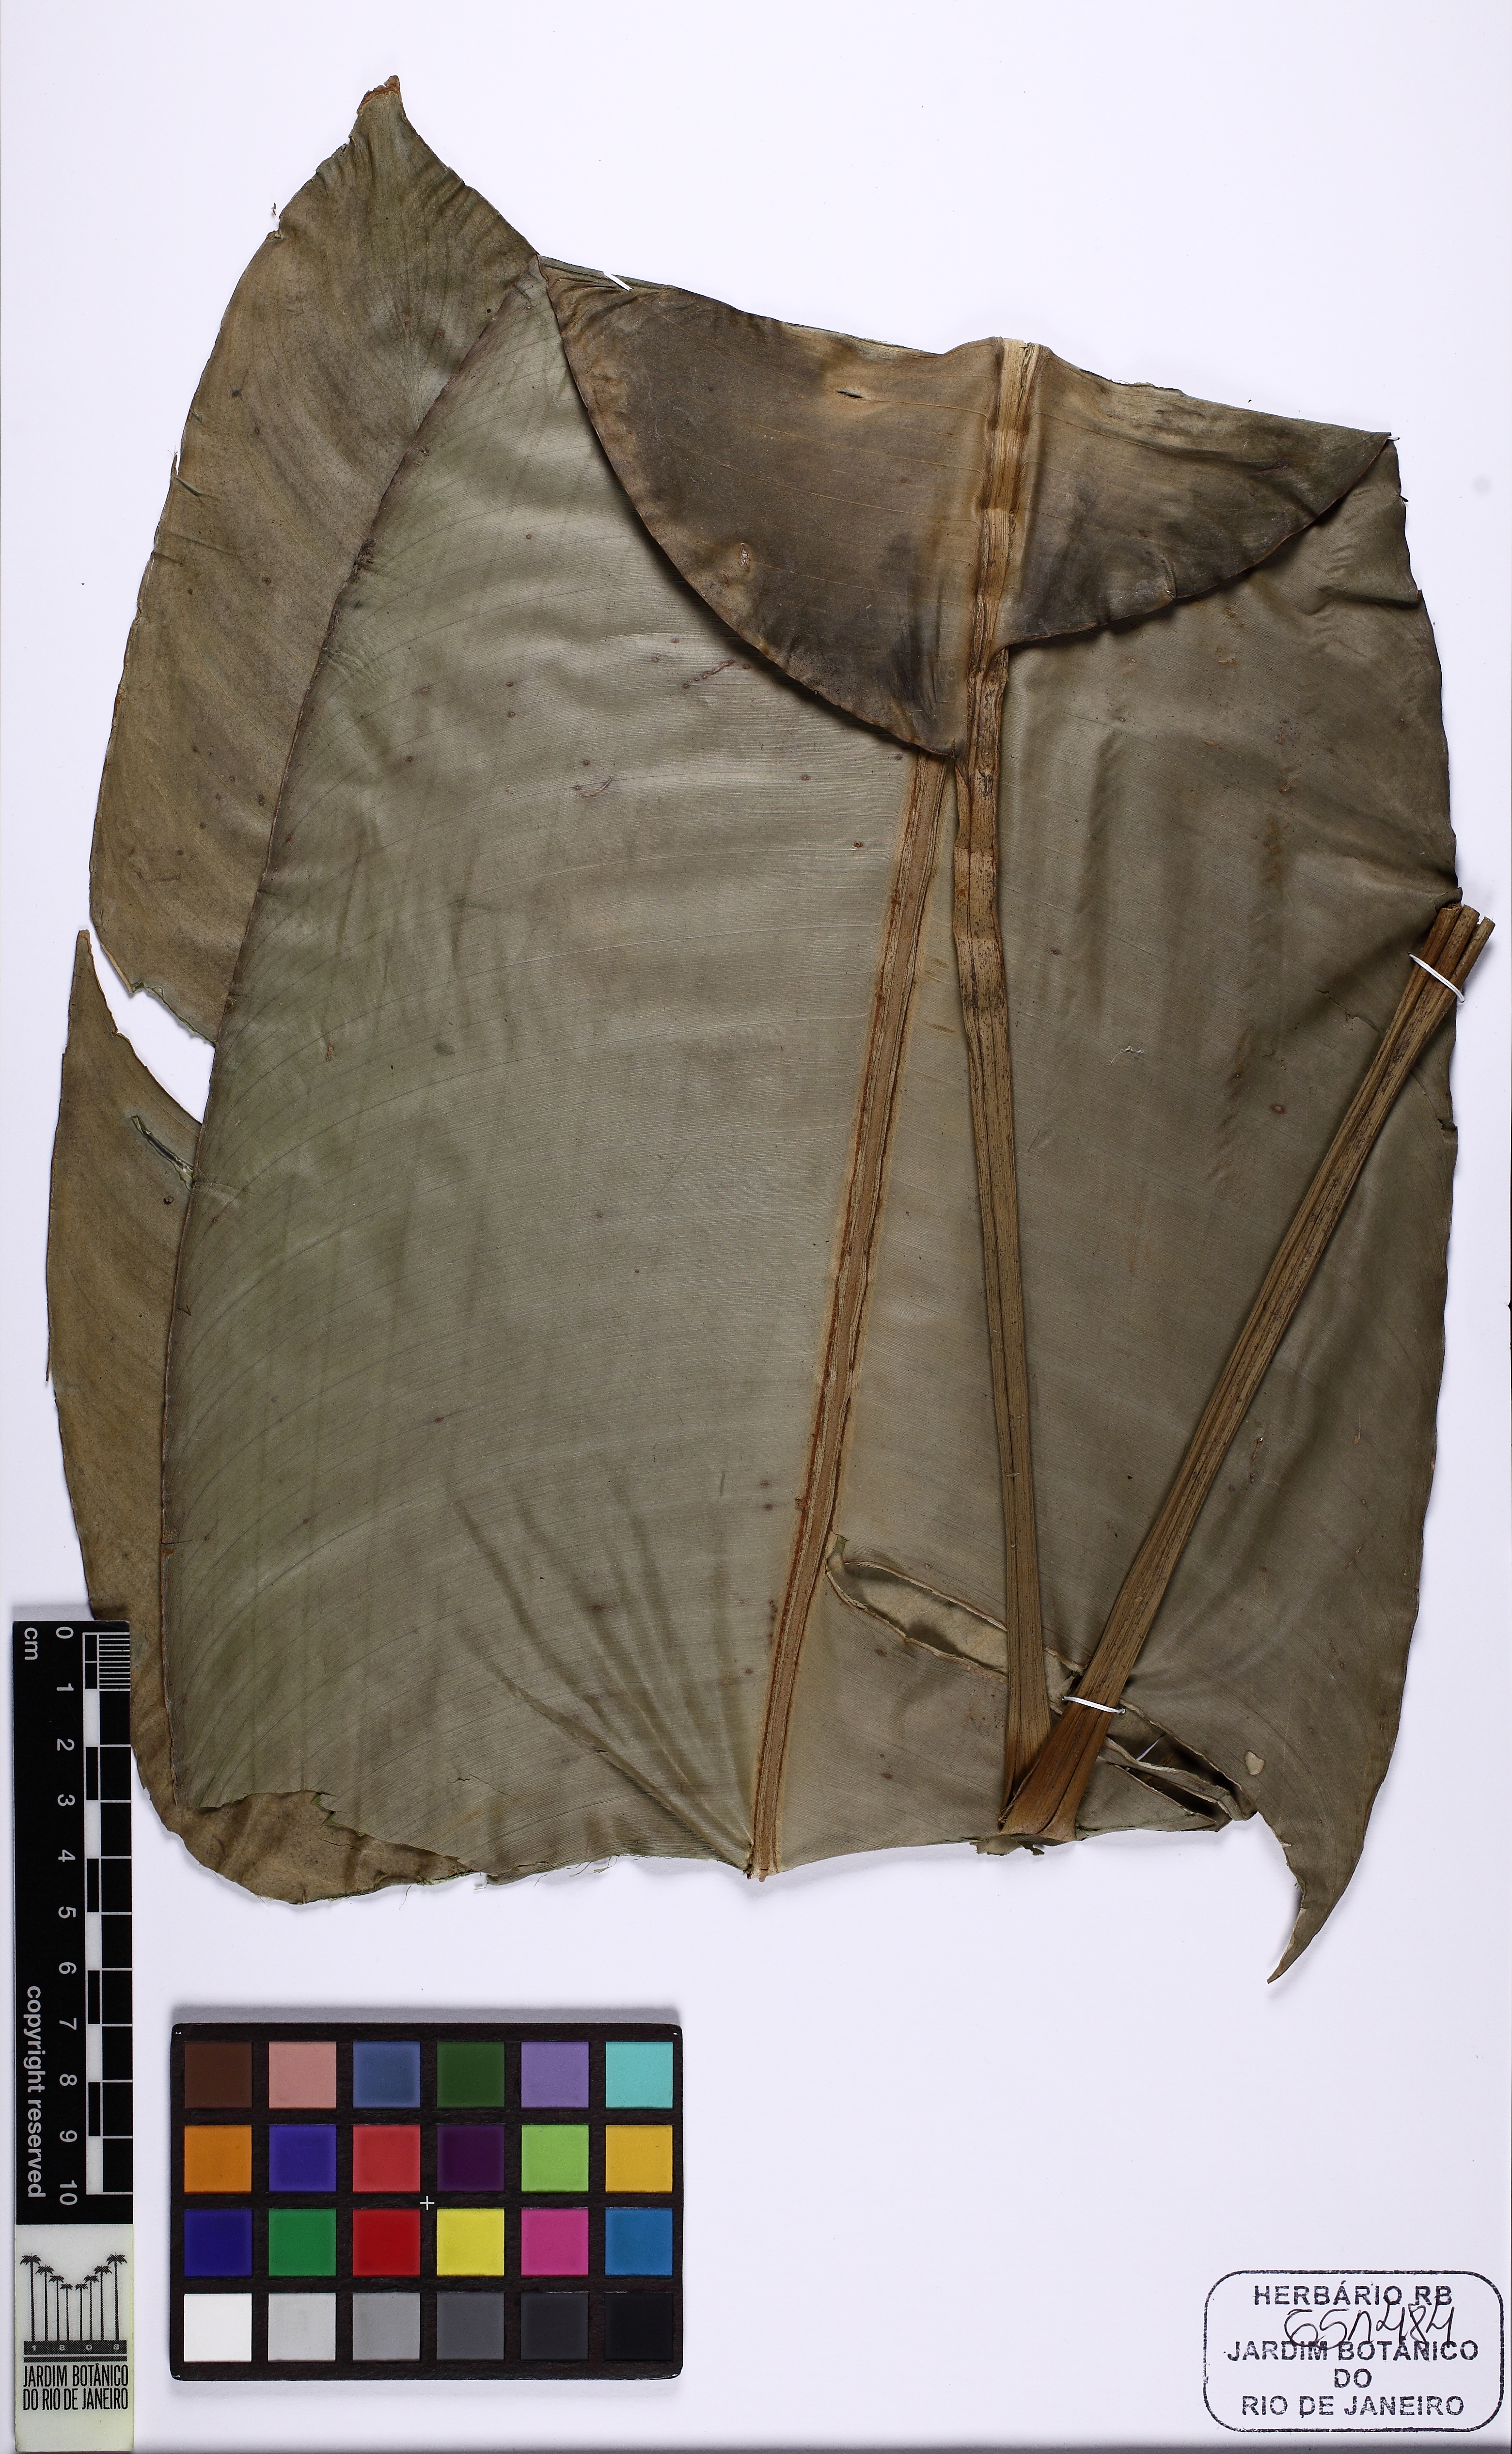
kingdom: Plantae
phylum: Tracheophyta
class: Liliopsida
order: Zingiberales
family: Heliconiaceae
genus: Heliconia
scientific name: Heliconia angusta
